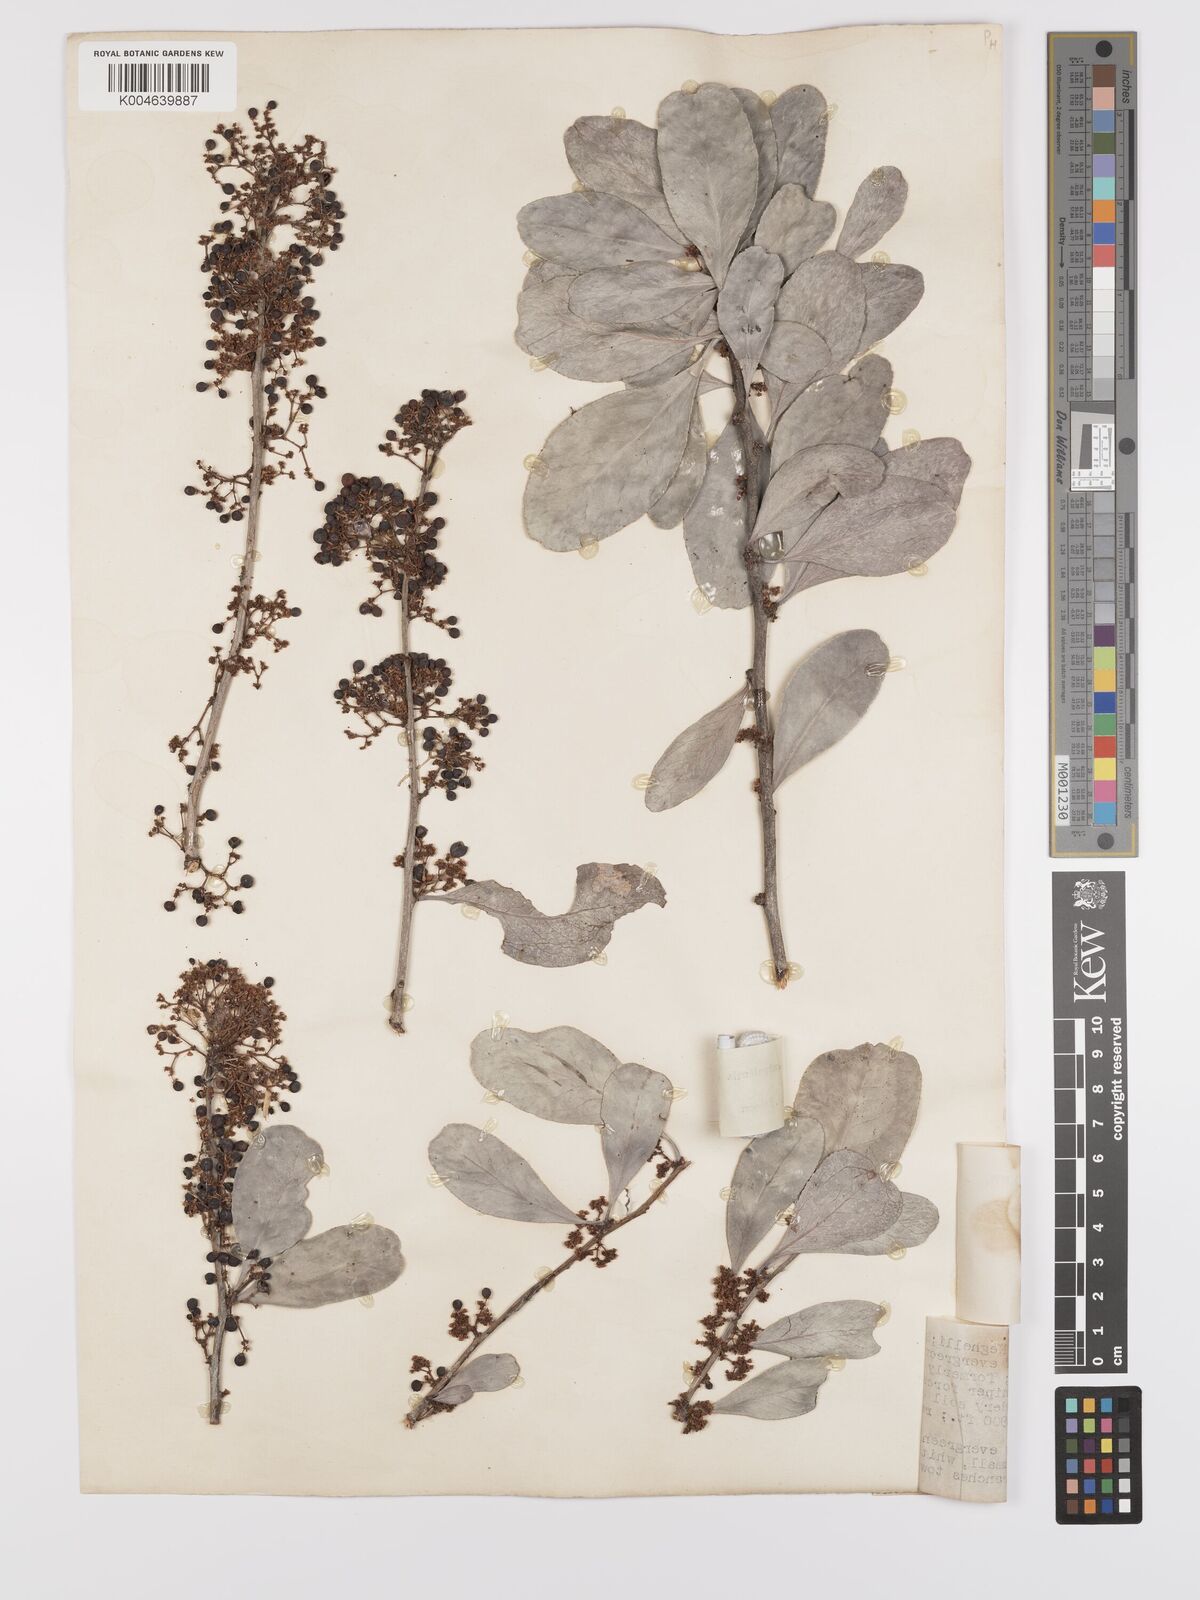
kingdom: Plantae
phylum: Tracheophyta
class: Magnoliopsida
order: Celastrales
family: Celastraceae
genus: Gymnosporia
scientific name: Gymnosporia senegalensis
